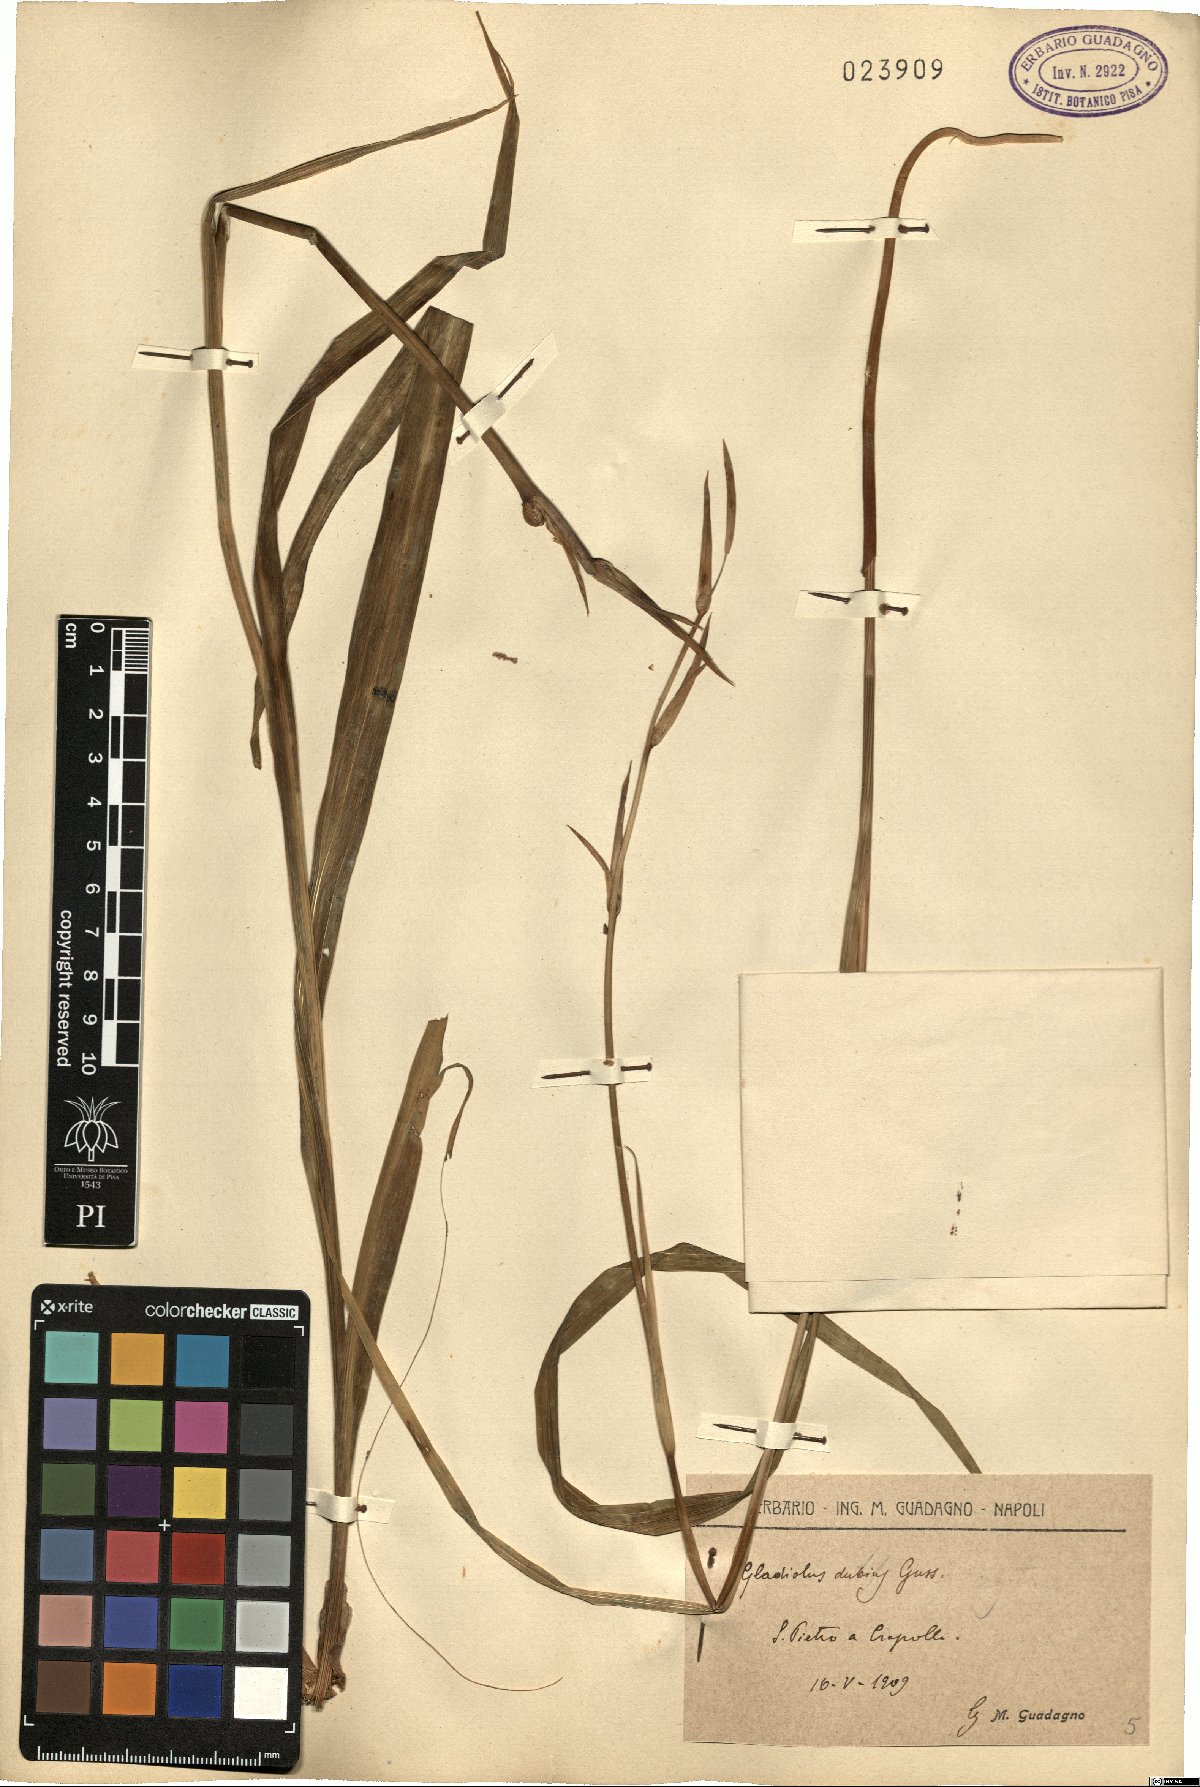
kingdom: Plantae
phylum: Tracheophyta
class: Liliopsida
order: Asparagales
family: Iridaceae
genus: Gladiolus
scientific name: Gladiolus dubius
